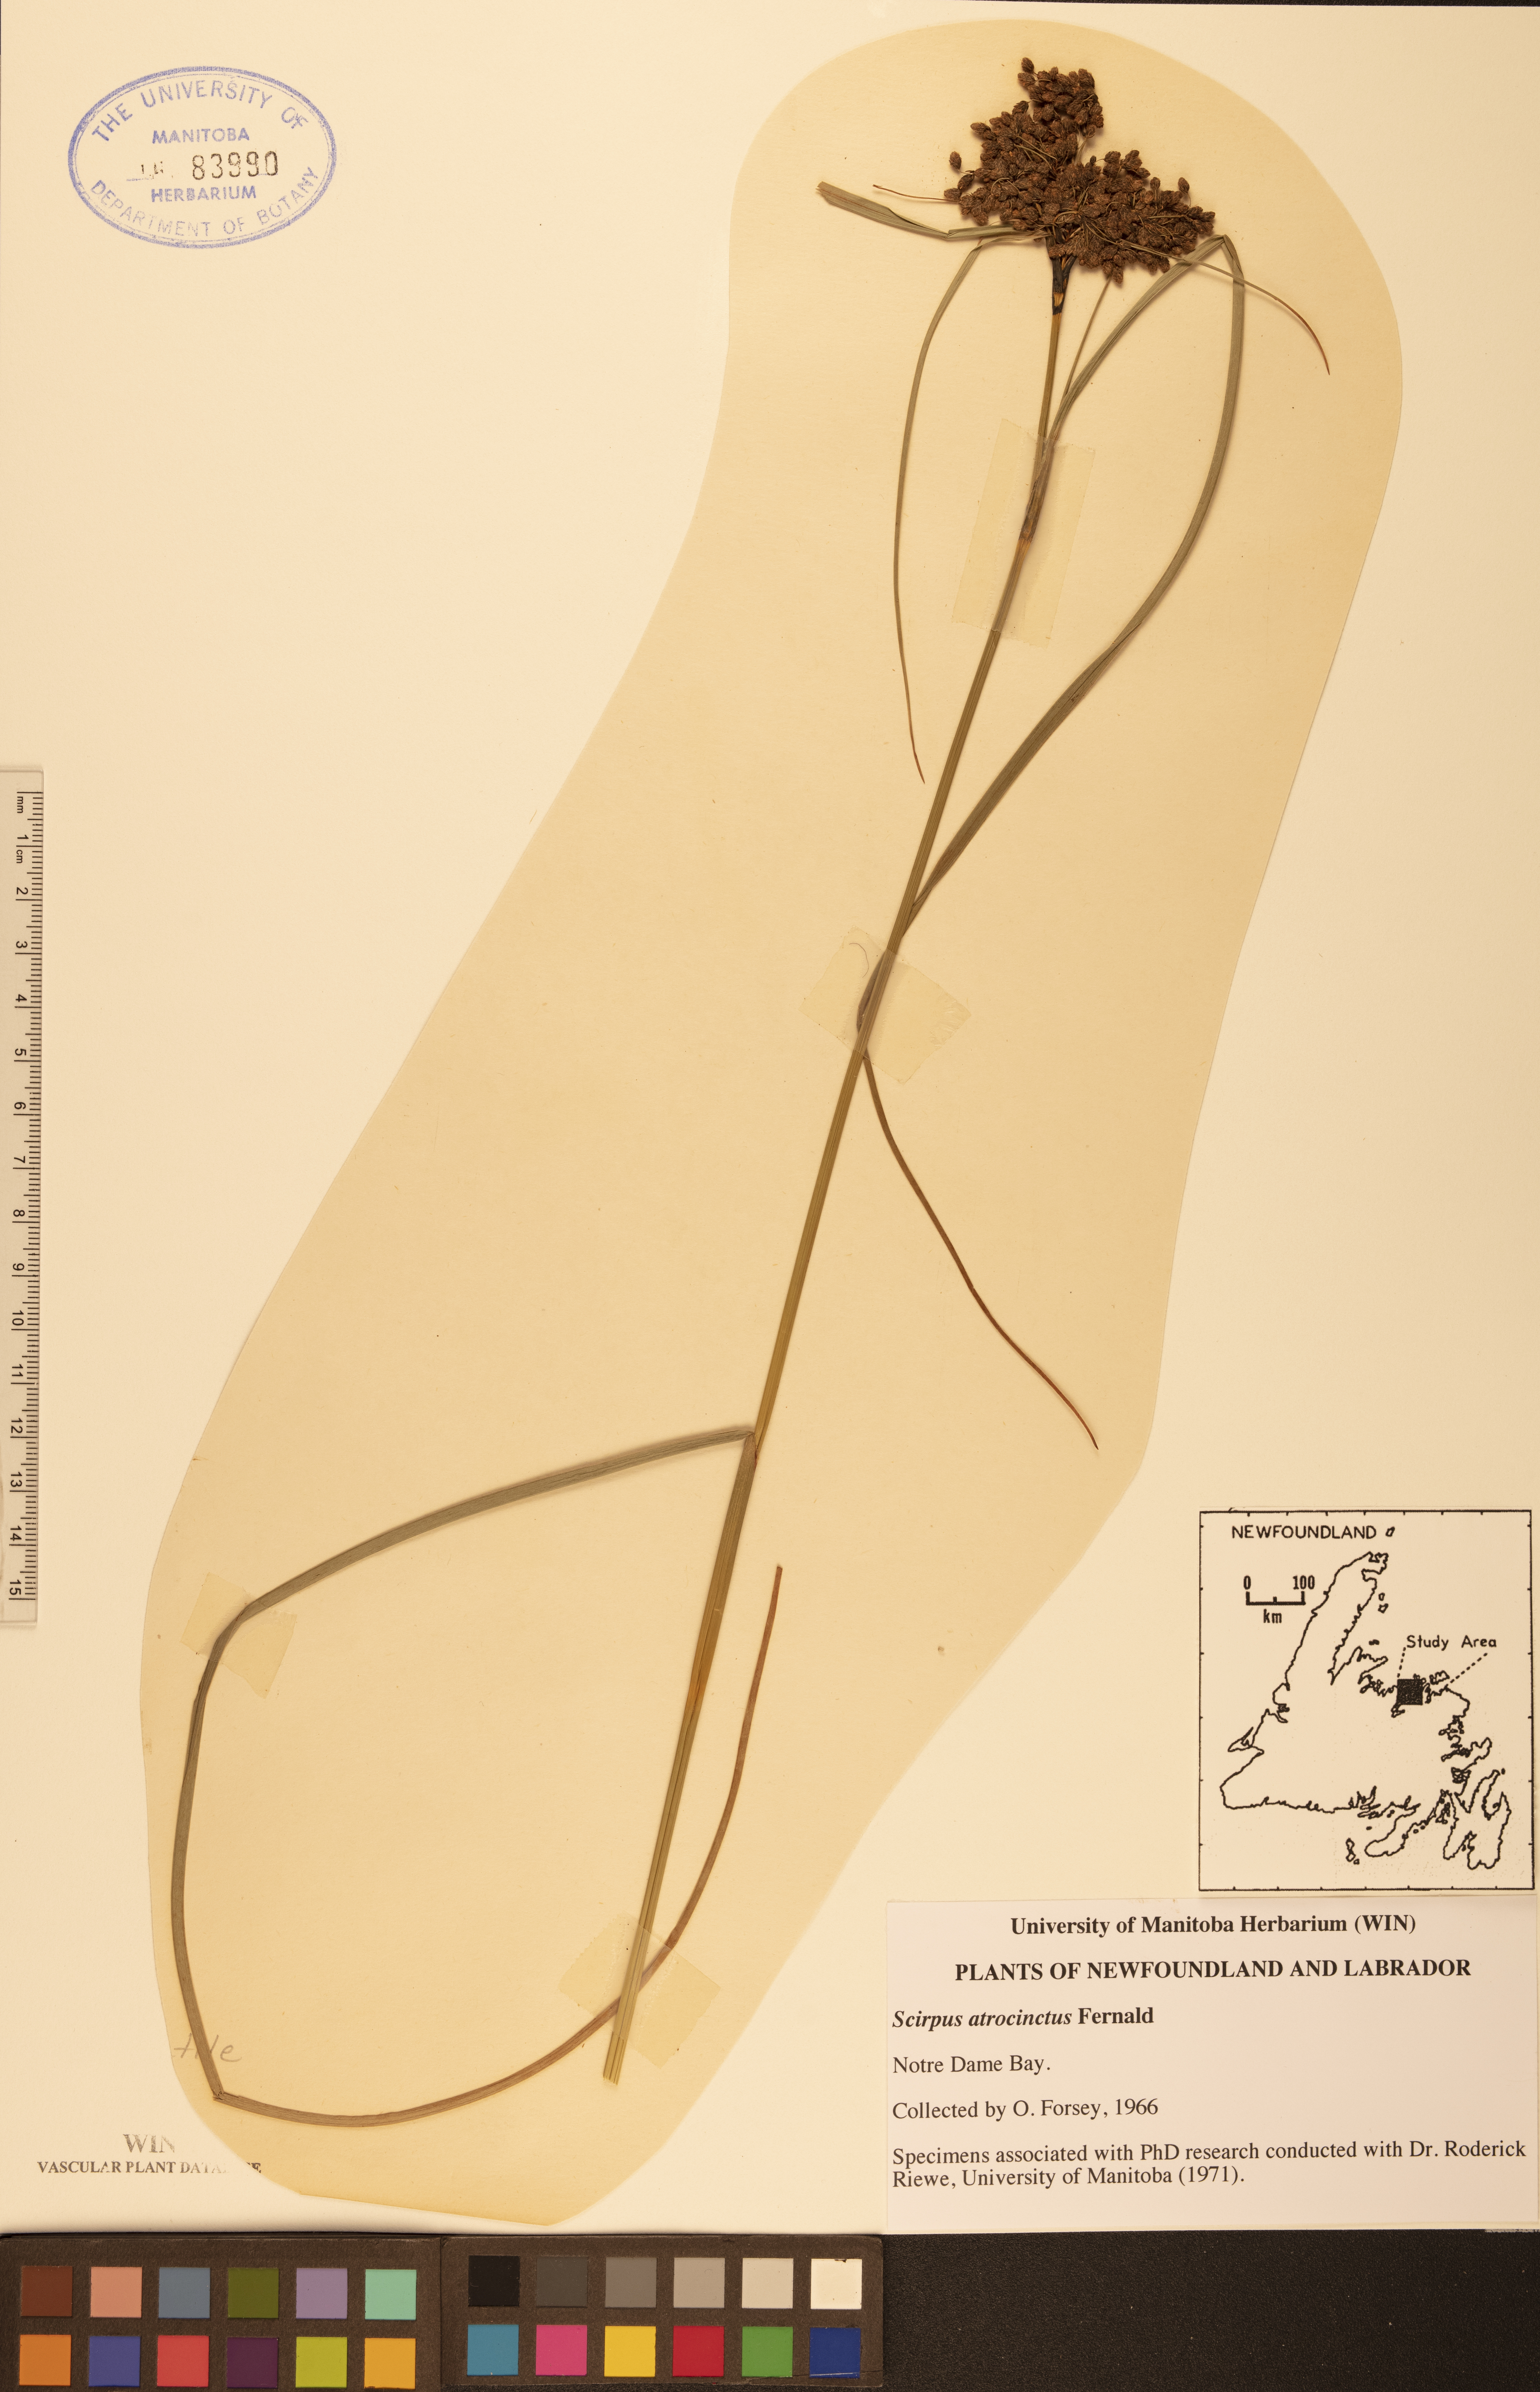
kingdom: Plantae
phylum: Tracheophyta
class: Liliopsida
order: Poales
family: Cyperaceae
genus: Scirpus
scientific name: Scirpus atrocinctus
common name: Black-girdled bulrush
